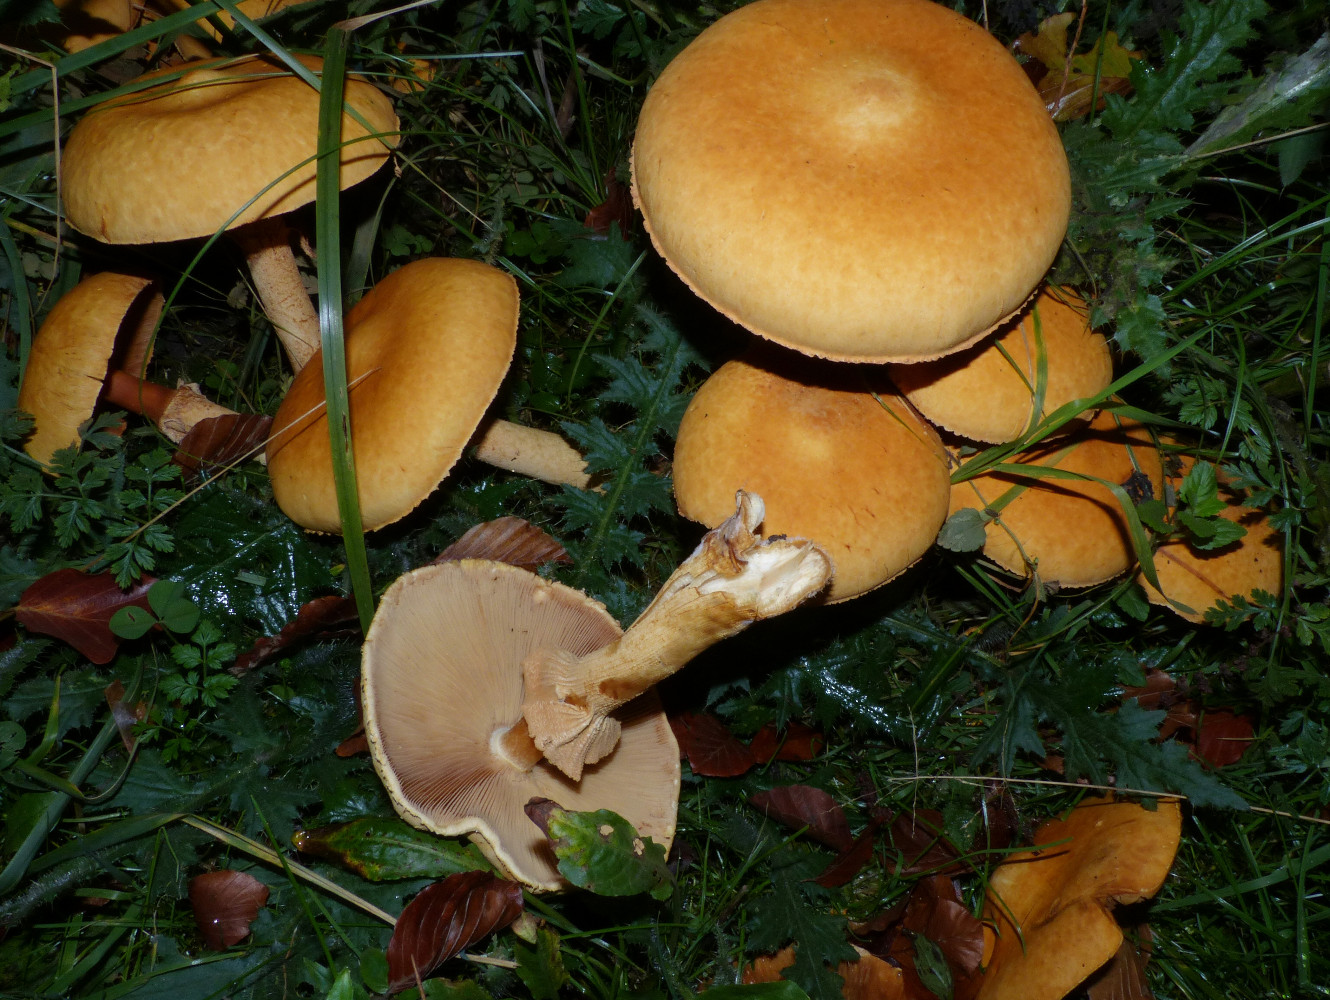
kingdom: Fungi
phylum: Basidiomycota
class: Agaricomycetes
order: Agaricales
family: Tricholomataceae
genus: Phaeolepiota
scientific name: Phaeolepiota aurea
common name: gyldenhat
